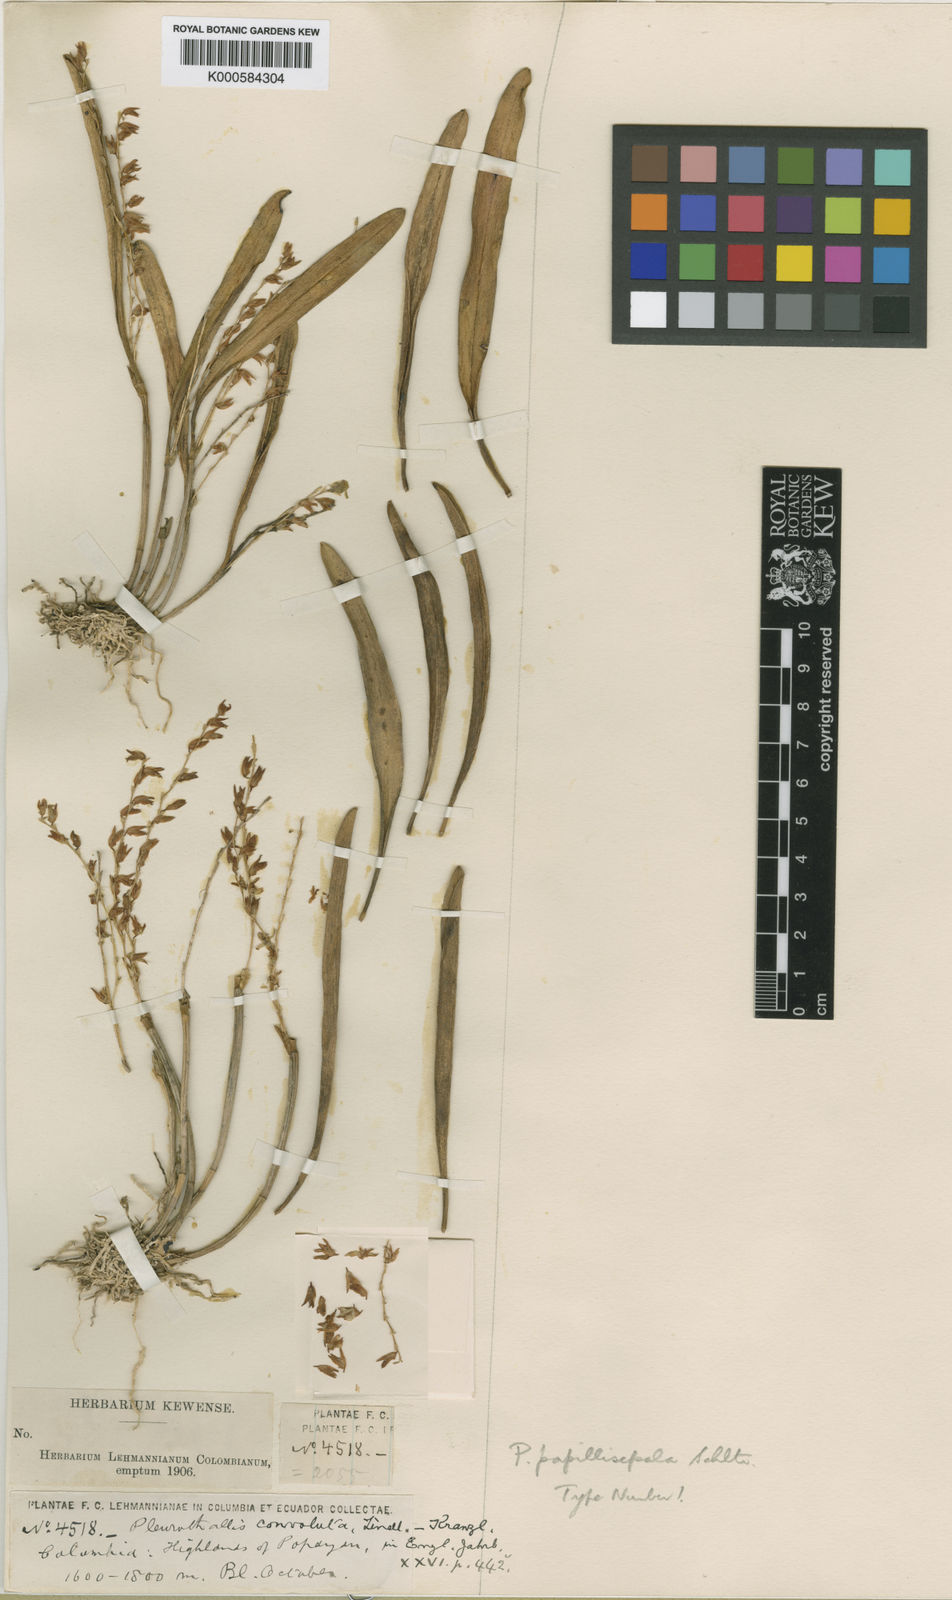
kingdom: Plantae
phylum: Tracheophyta
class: Liliopsida
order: Asparagales
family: Orchidaceae
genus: Stelis
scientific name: Stelis convoluta
